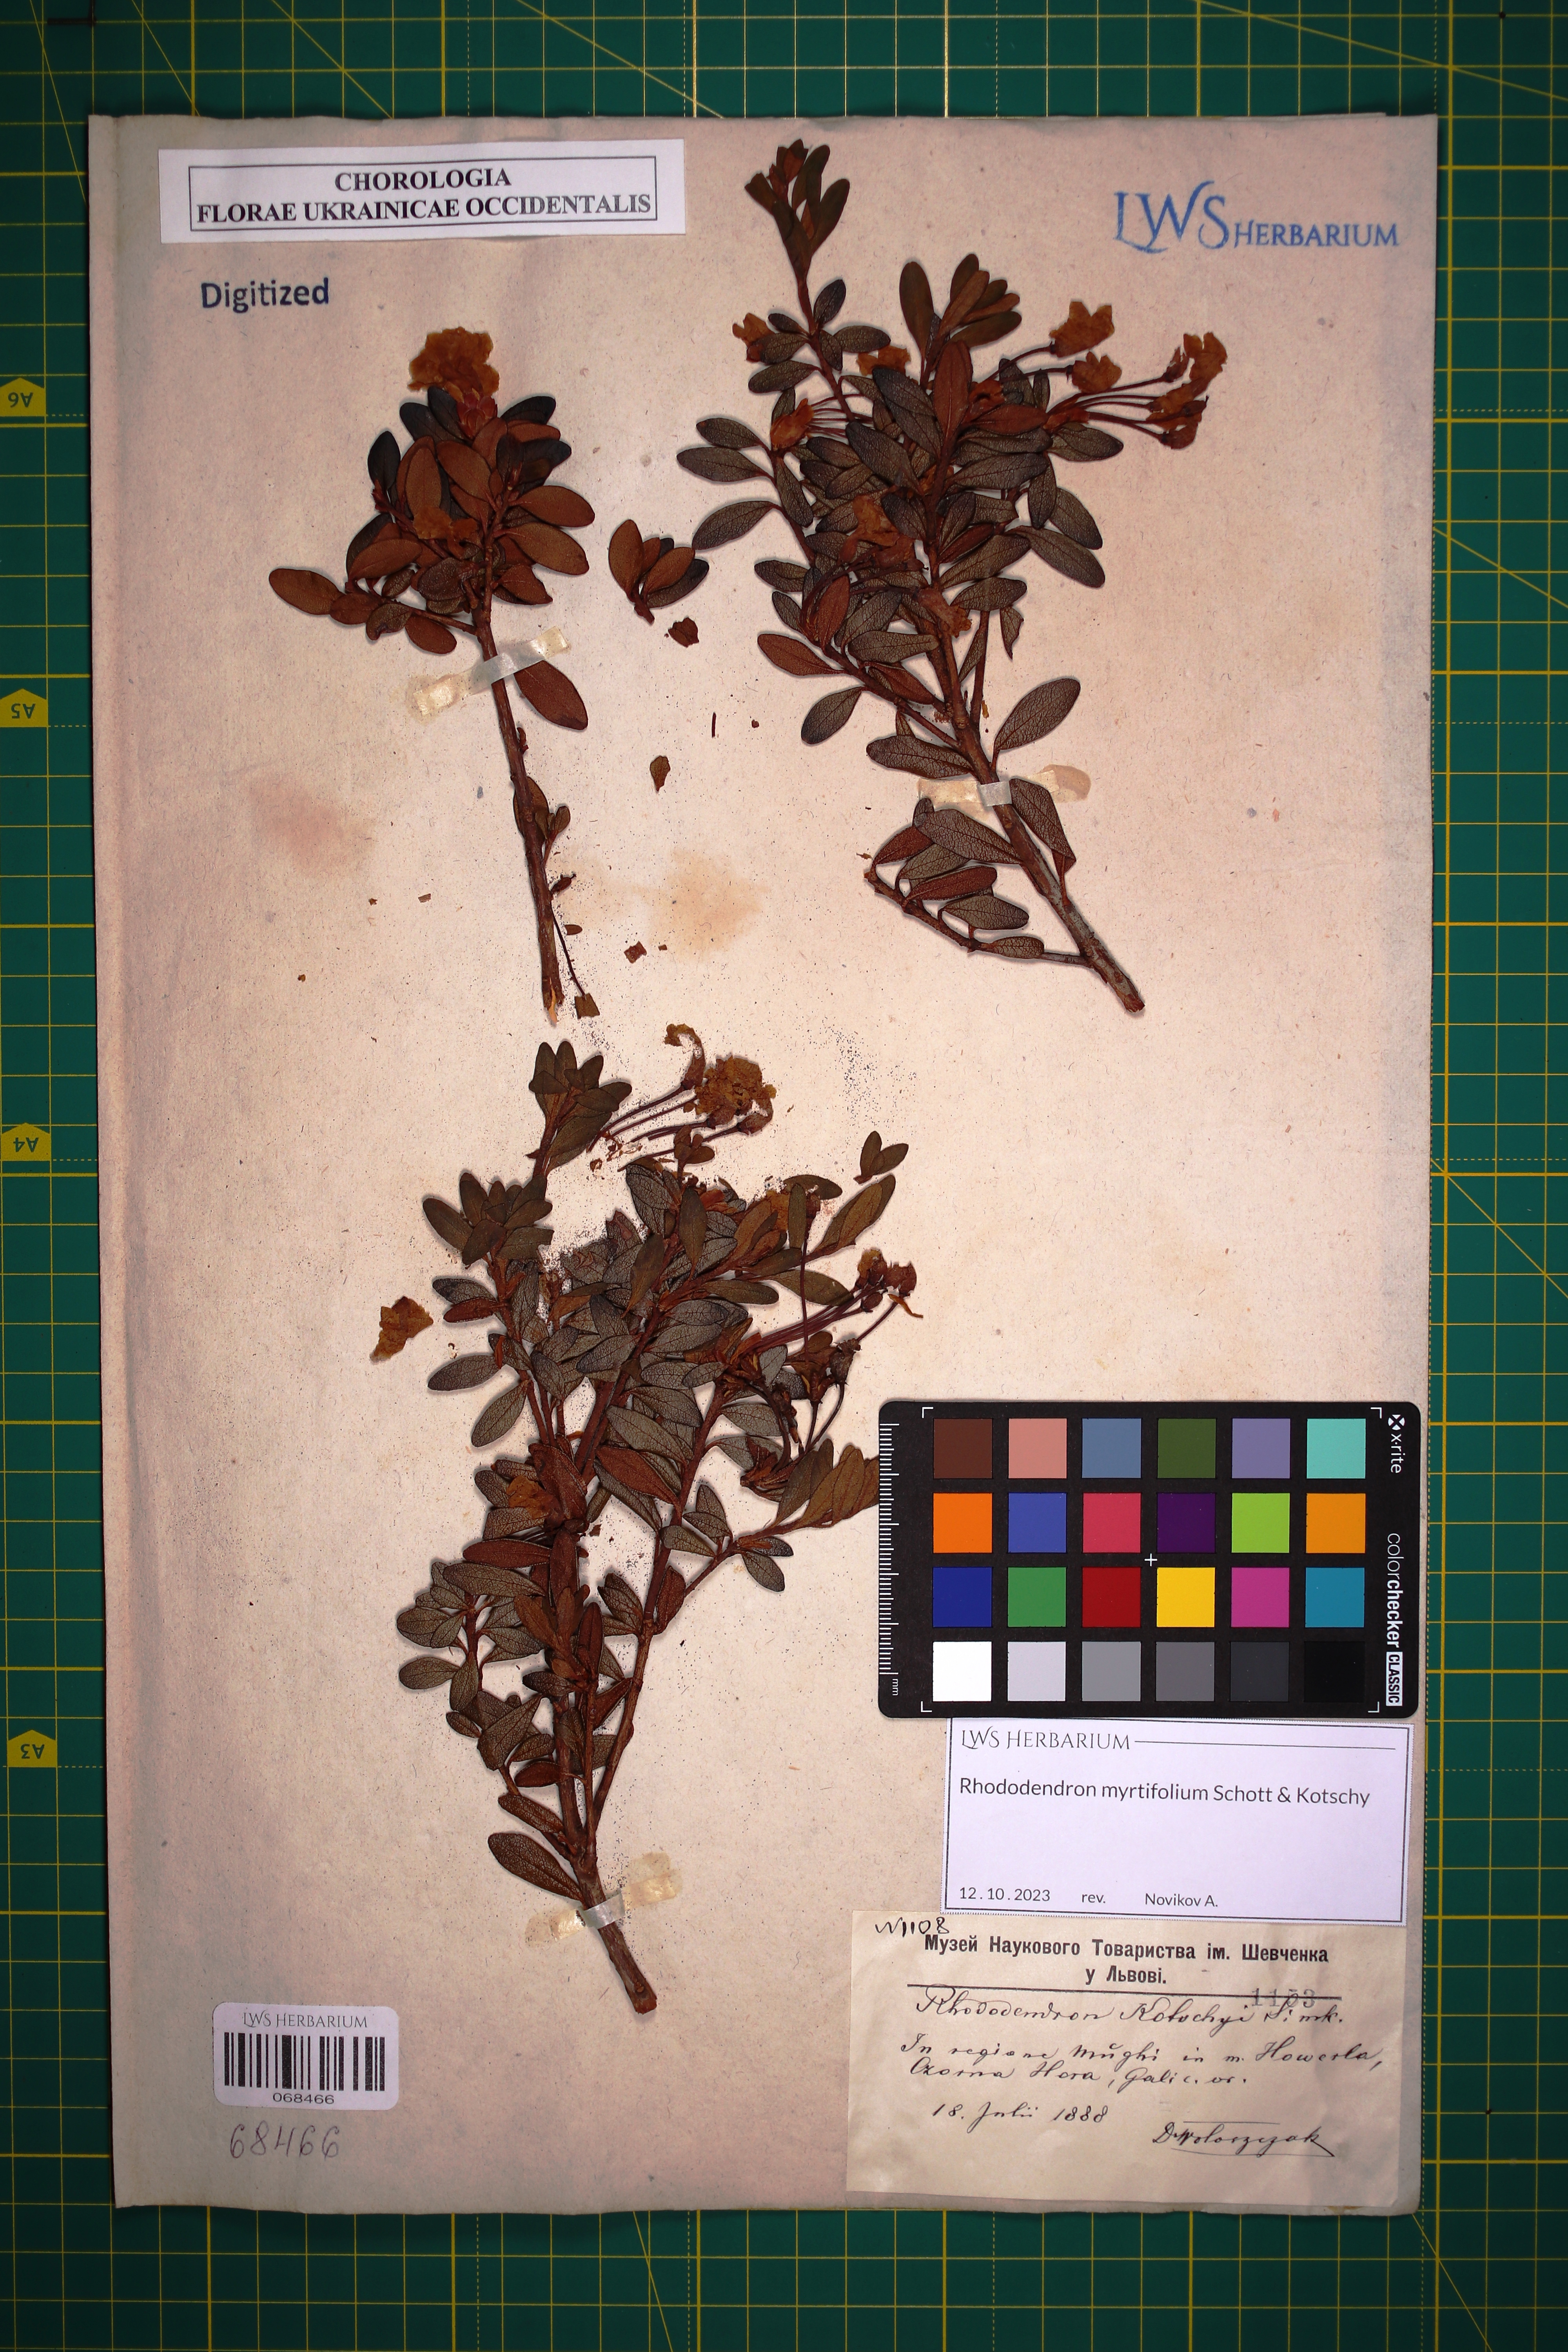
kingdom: Plantae
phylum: Tracheophyta
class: Magnoliopsida
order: Ericales
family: Ericaceae
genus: Rhododendron
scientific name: Rhododendron kotschyi
